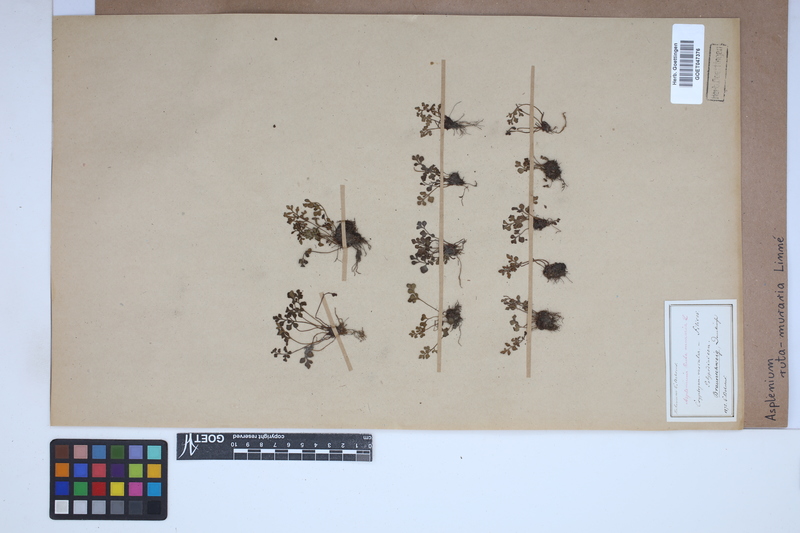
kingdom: Plantae
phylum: Tracheophyta
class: Polypodiopsida
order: Polypodiales
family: Aspleniaceae
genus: Asplenium
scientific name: Asplenium ruta-muraria
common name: Wall-rue
